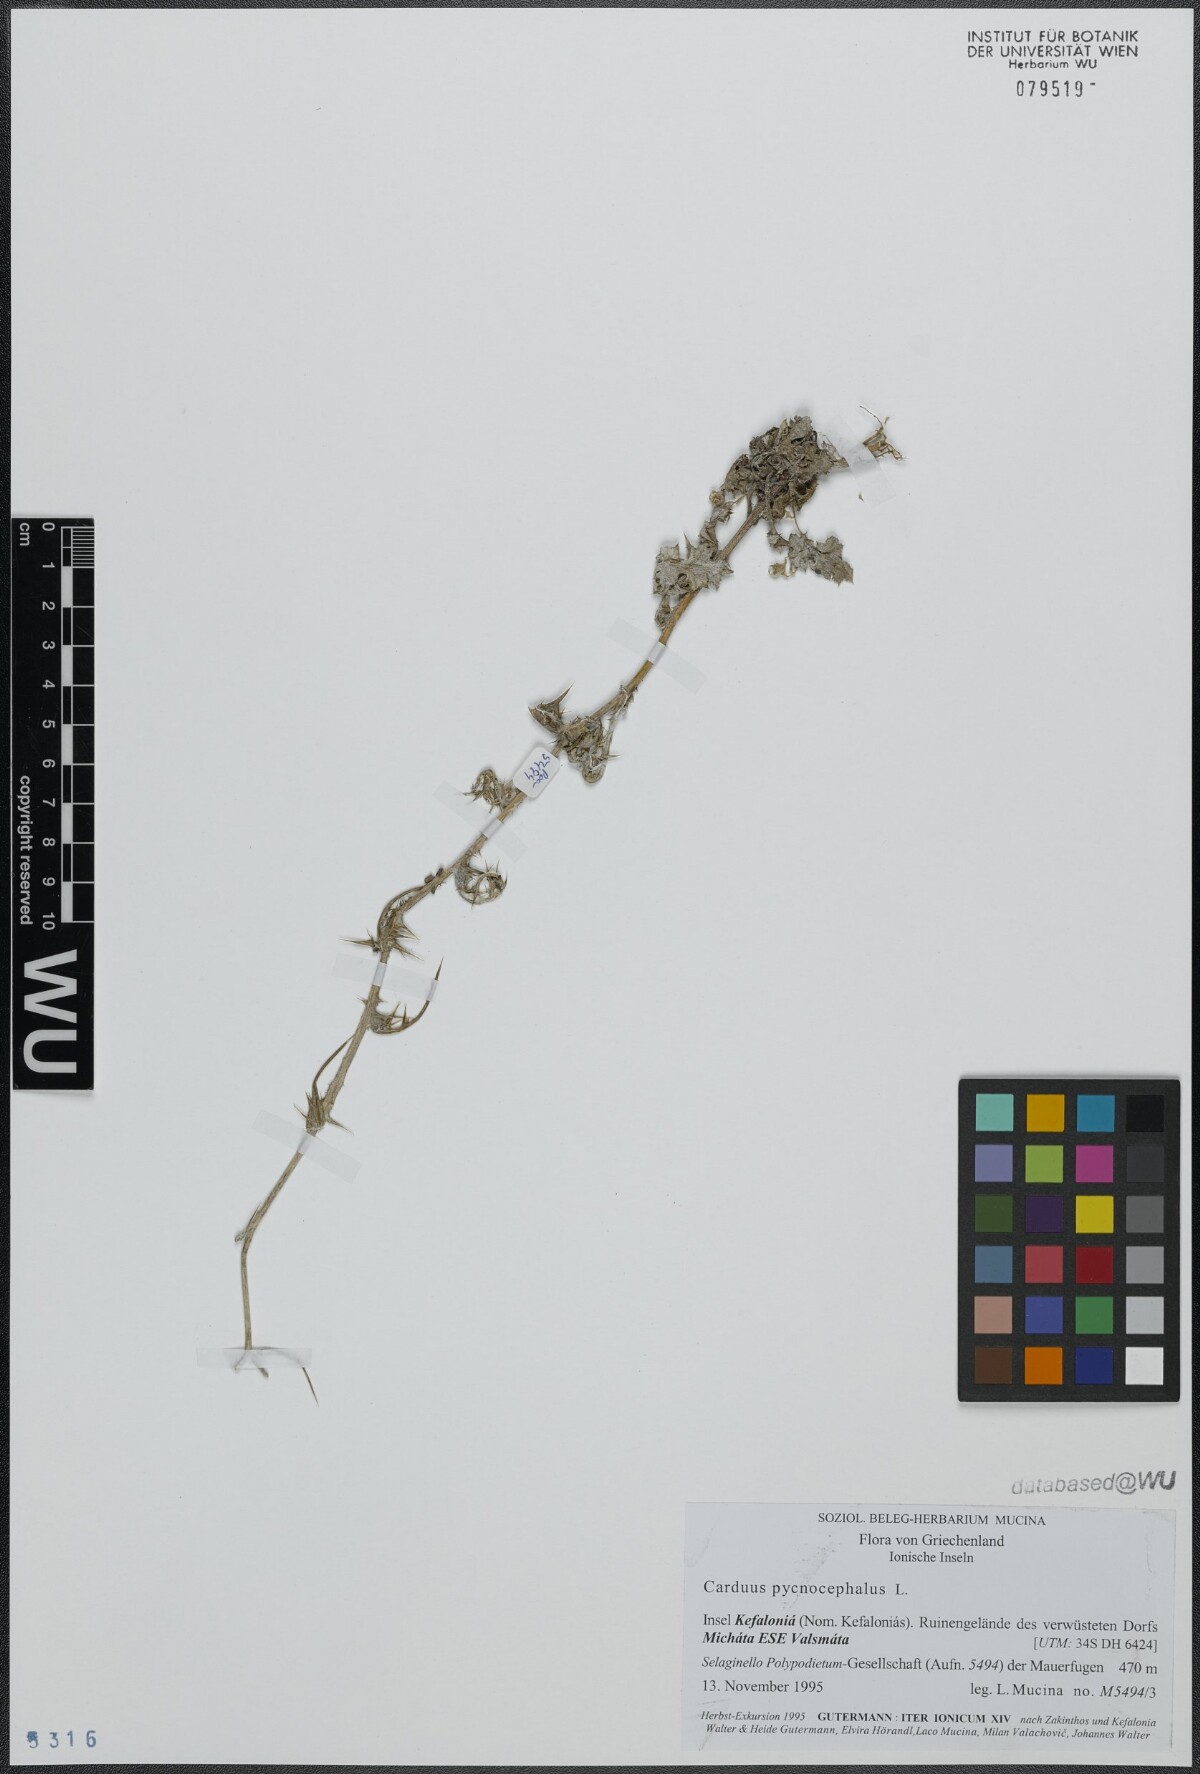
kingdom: Plantae
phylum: Tracheophyta
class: Magnoliopsida
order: Asterales
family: Asteraceae
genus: Carduus
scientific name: Carduus pycnocephalus
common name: Plymouth thistle
